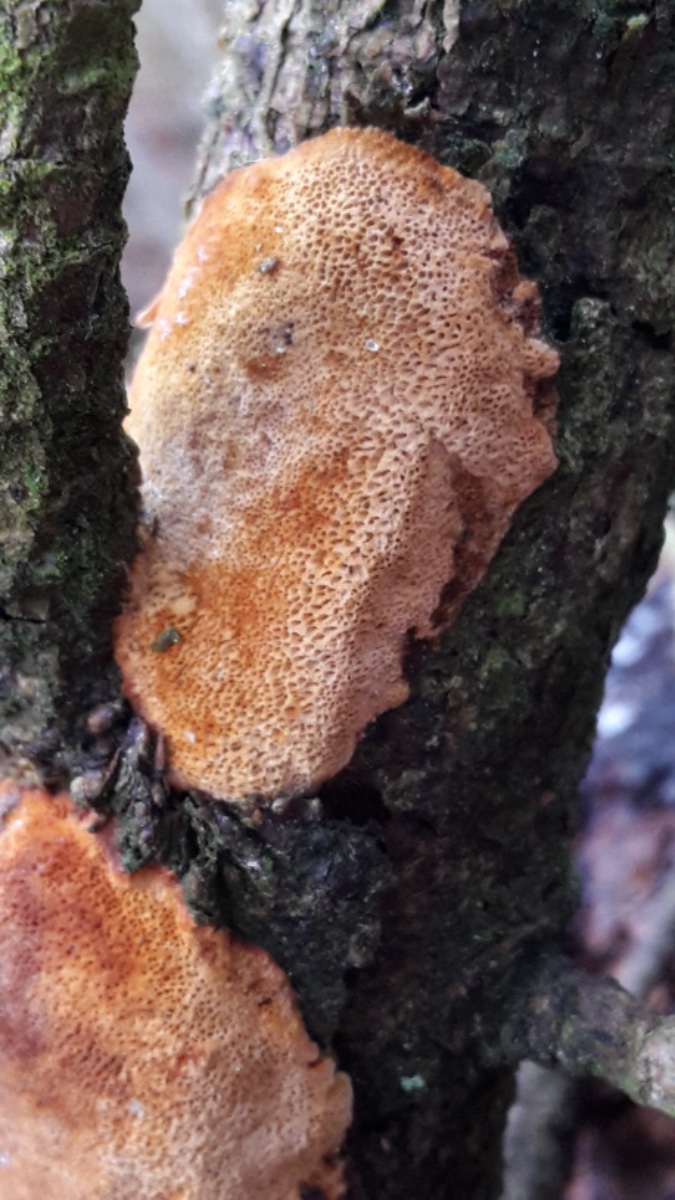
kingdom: Fungi
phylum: Basidiomycota
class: Agaricomycetes
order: Hymenochaetales
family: Hymenochaetaceae
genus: Fuscoporia
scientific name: Fuscoporia ferrea
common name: skorpe-ildporesvamp
